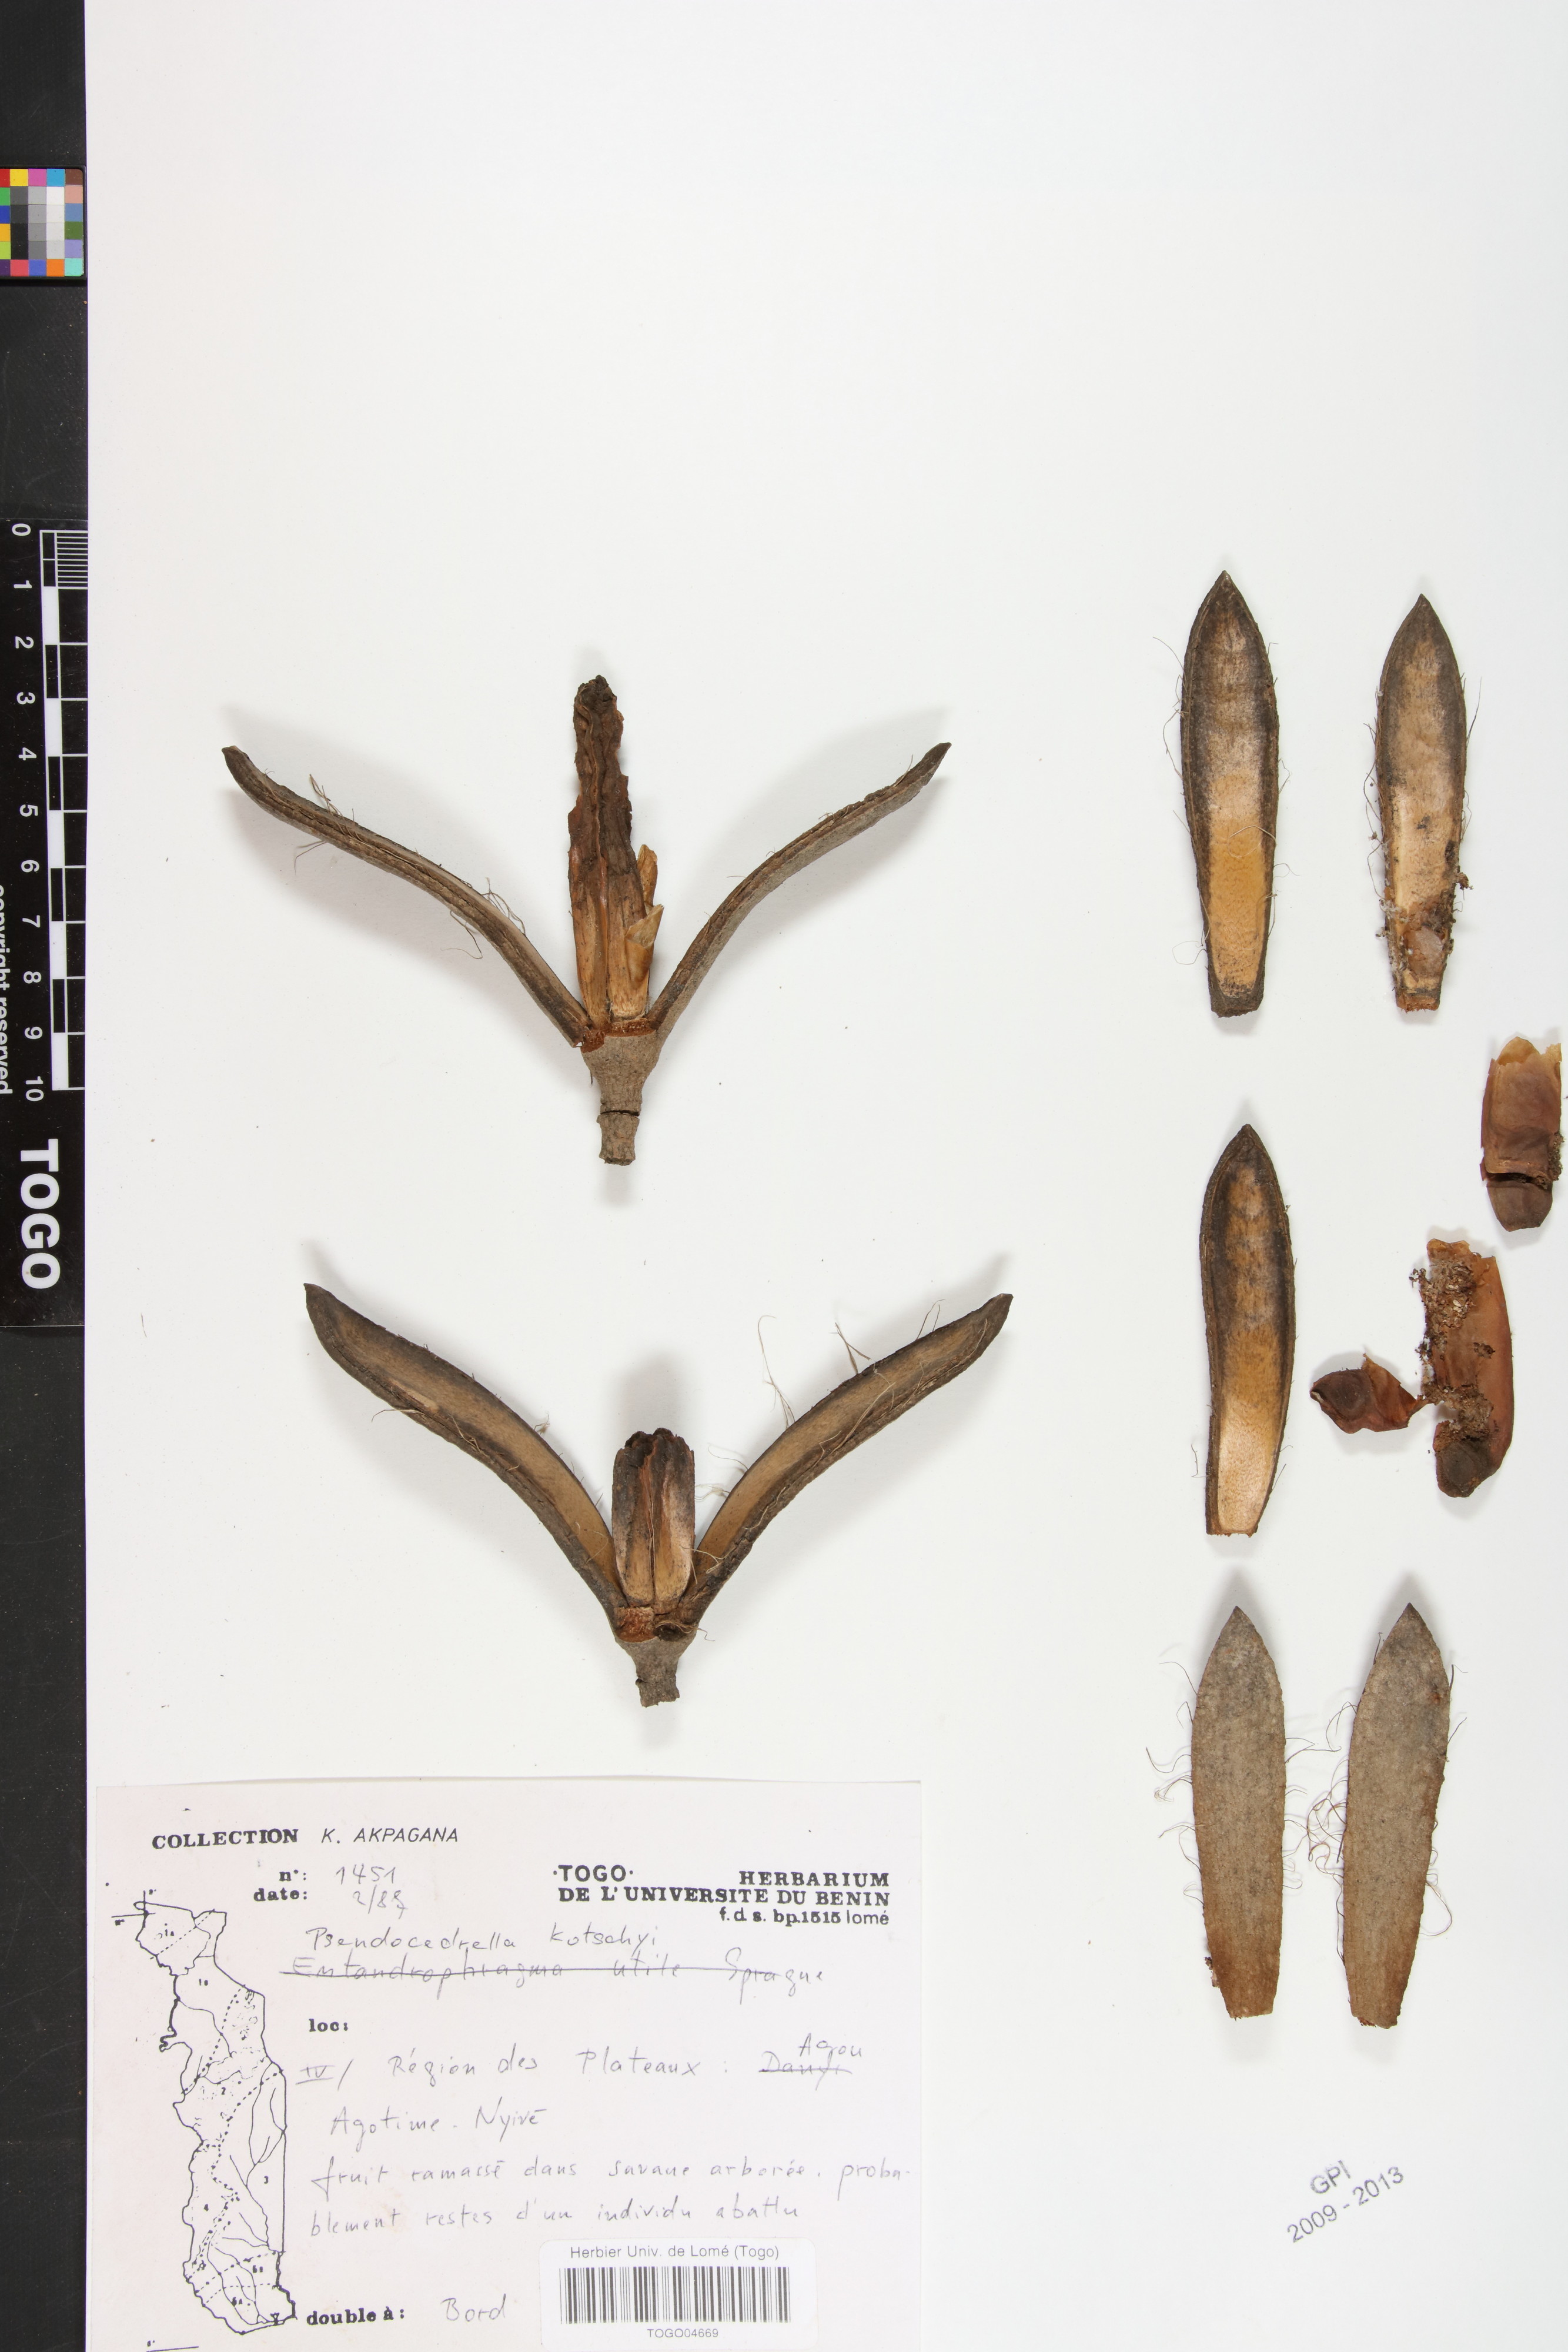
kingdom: Plantae
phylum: Tracheophyta
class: Magnoliopsida
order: Sapindales
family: Meliaceae
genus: Pseudocedrela
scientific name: Pseudocedrela kotschyi
